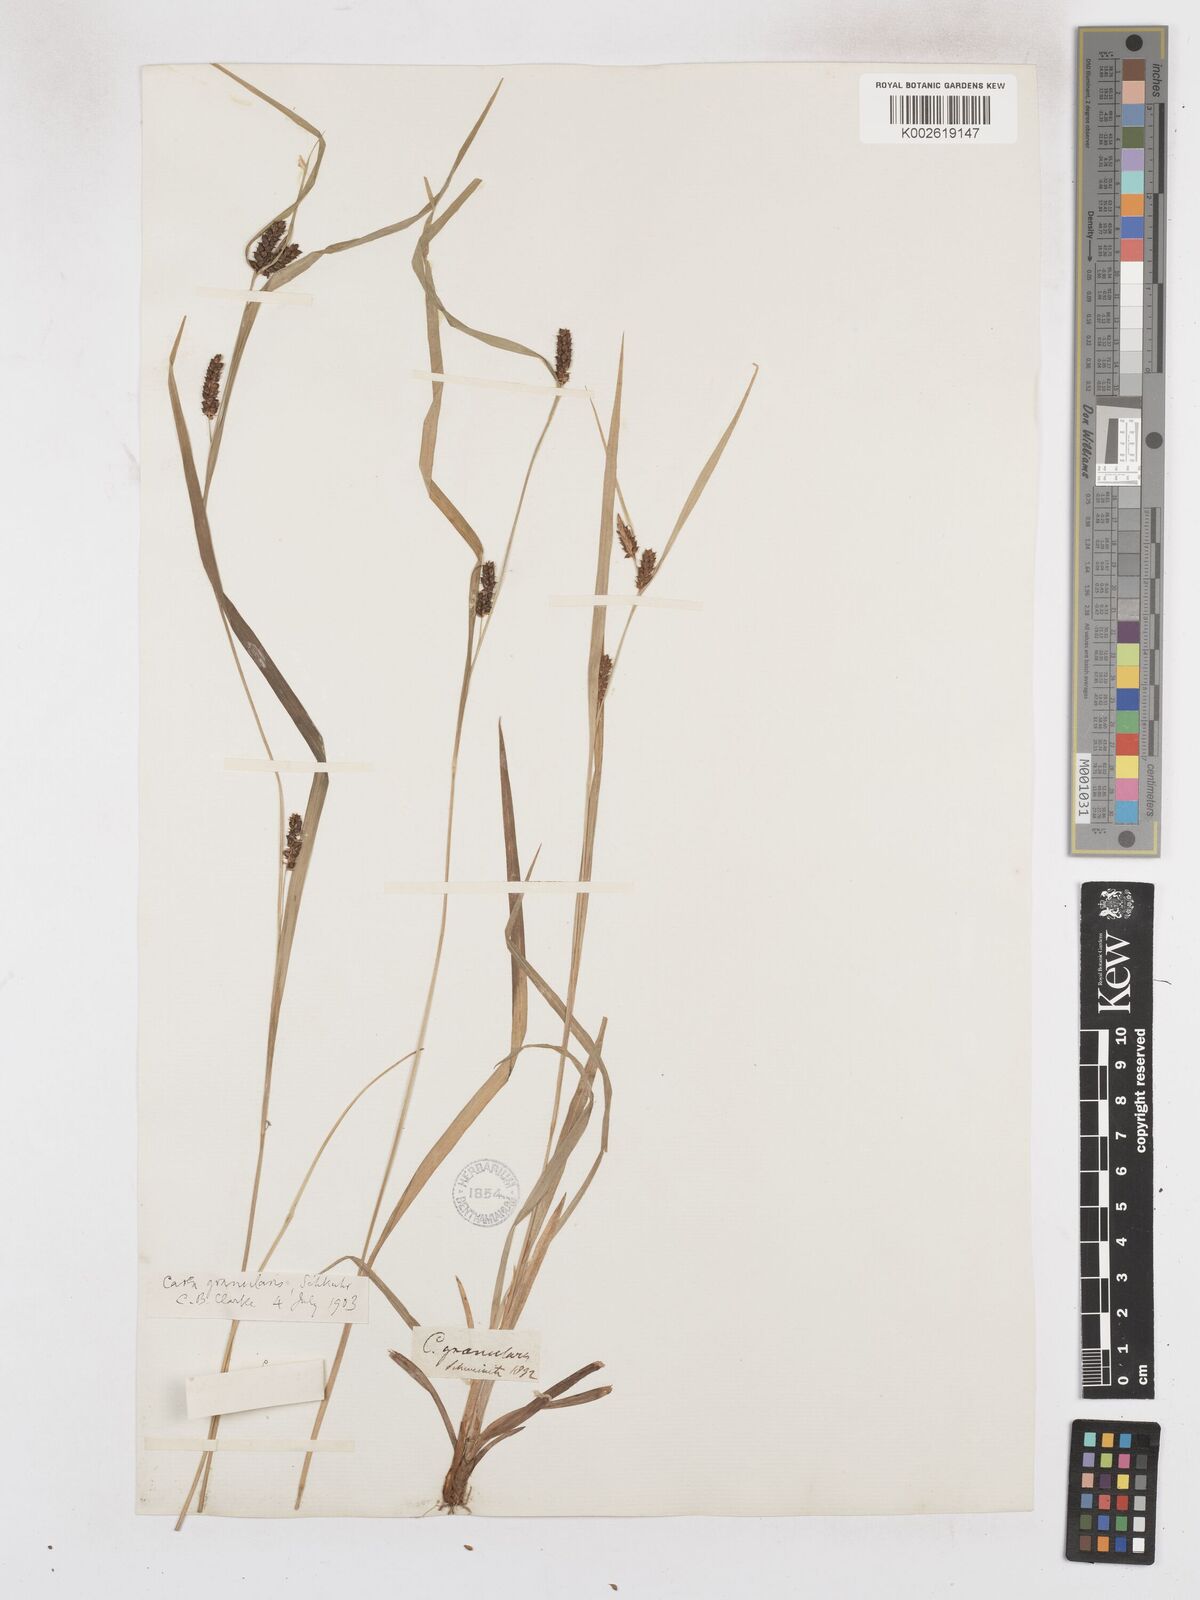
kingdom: Plantae
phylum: Tracheophyta
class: Liliopsida
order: Poales
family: Cyperaceae
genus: Carex
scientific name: Carex granularis
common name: Granular sedge
